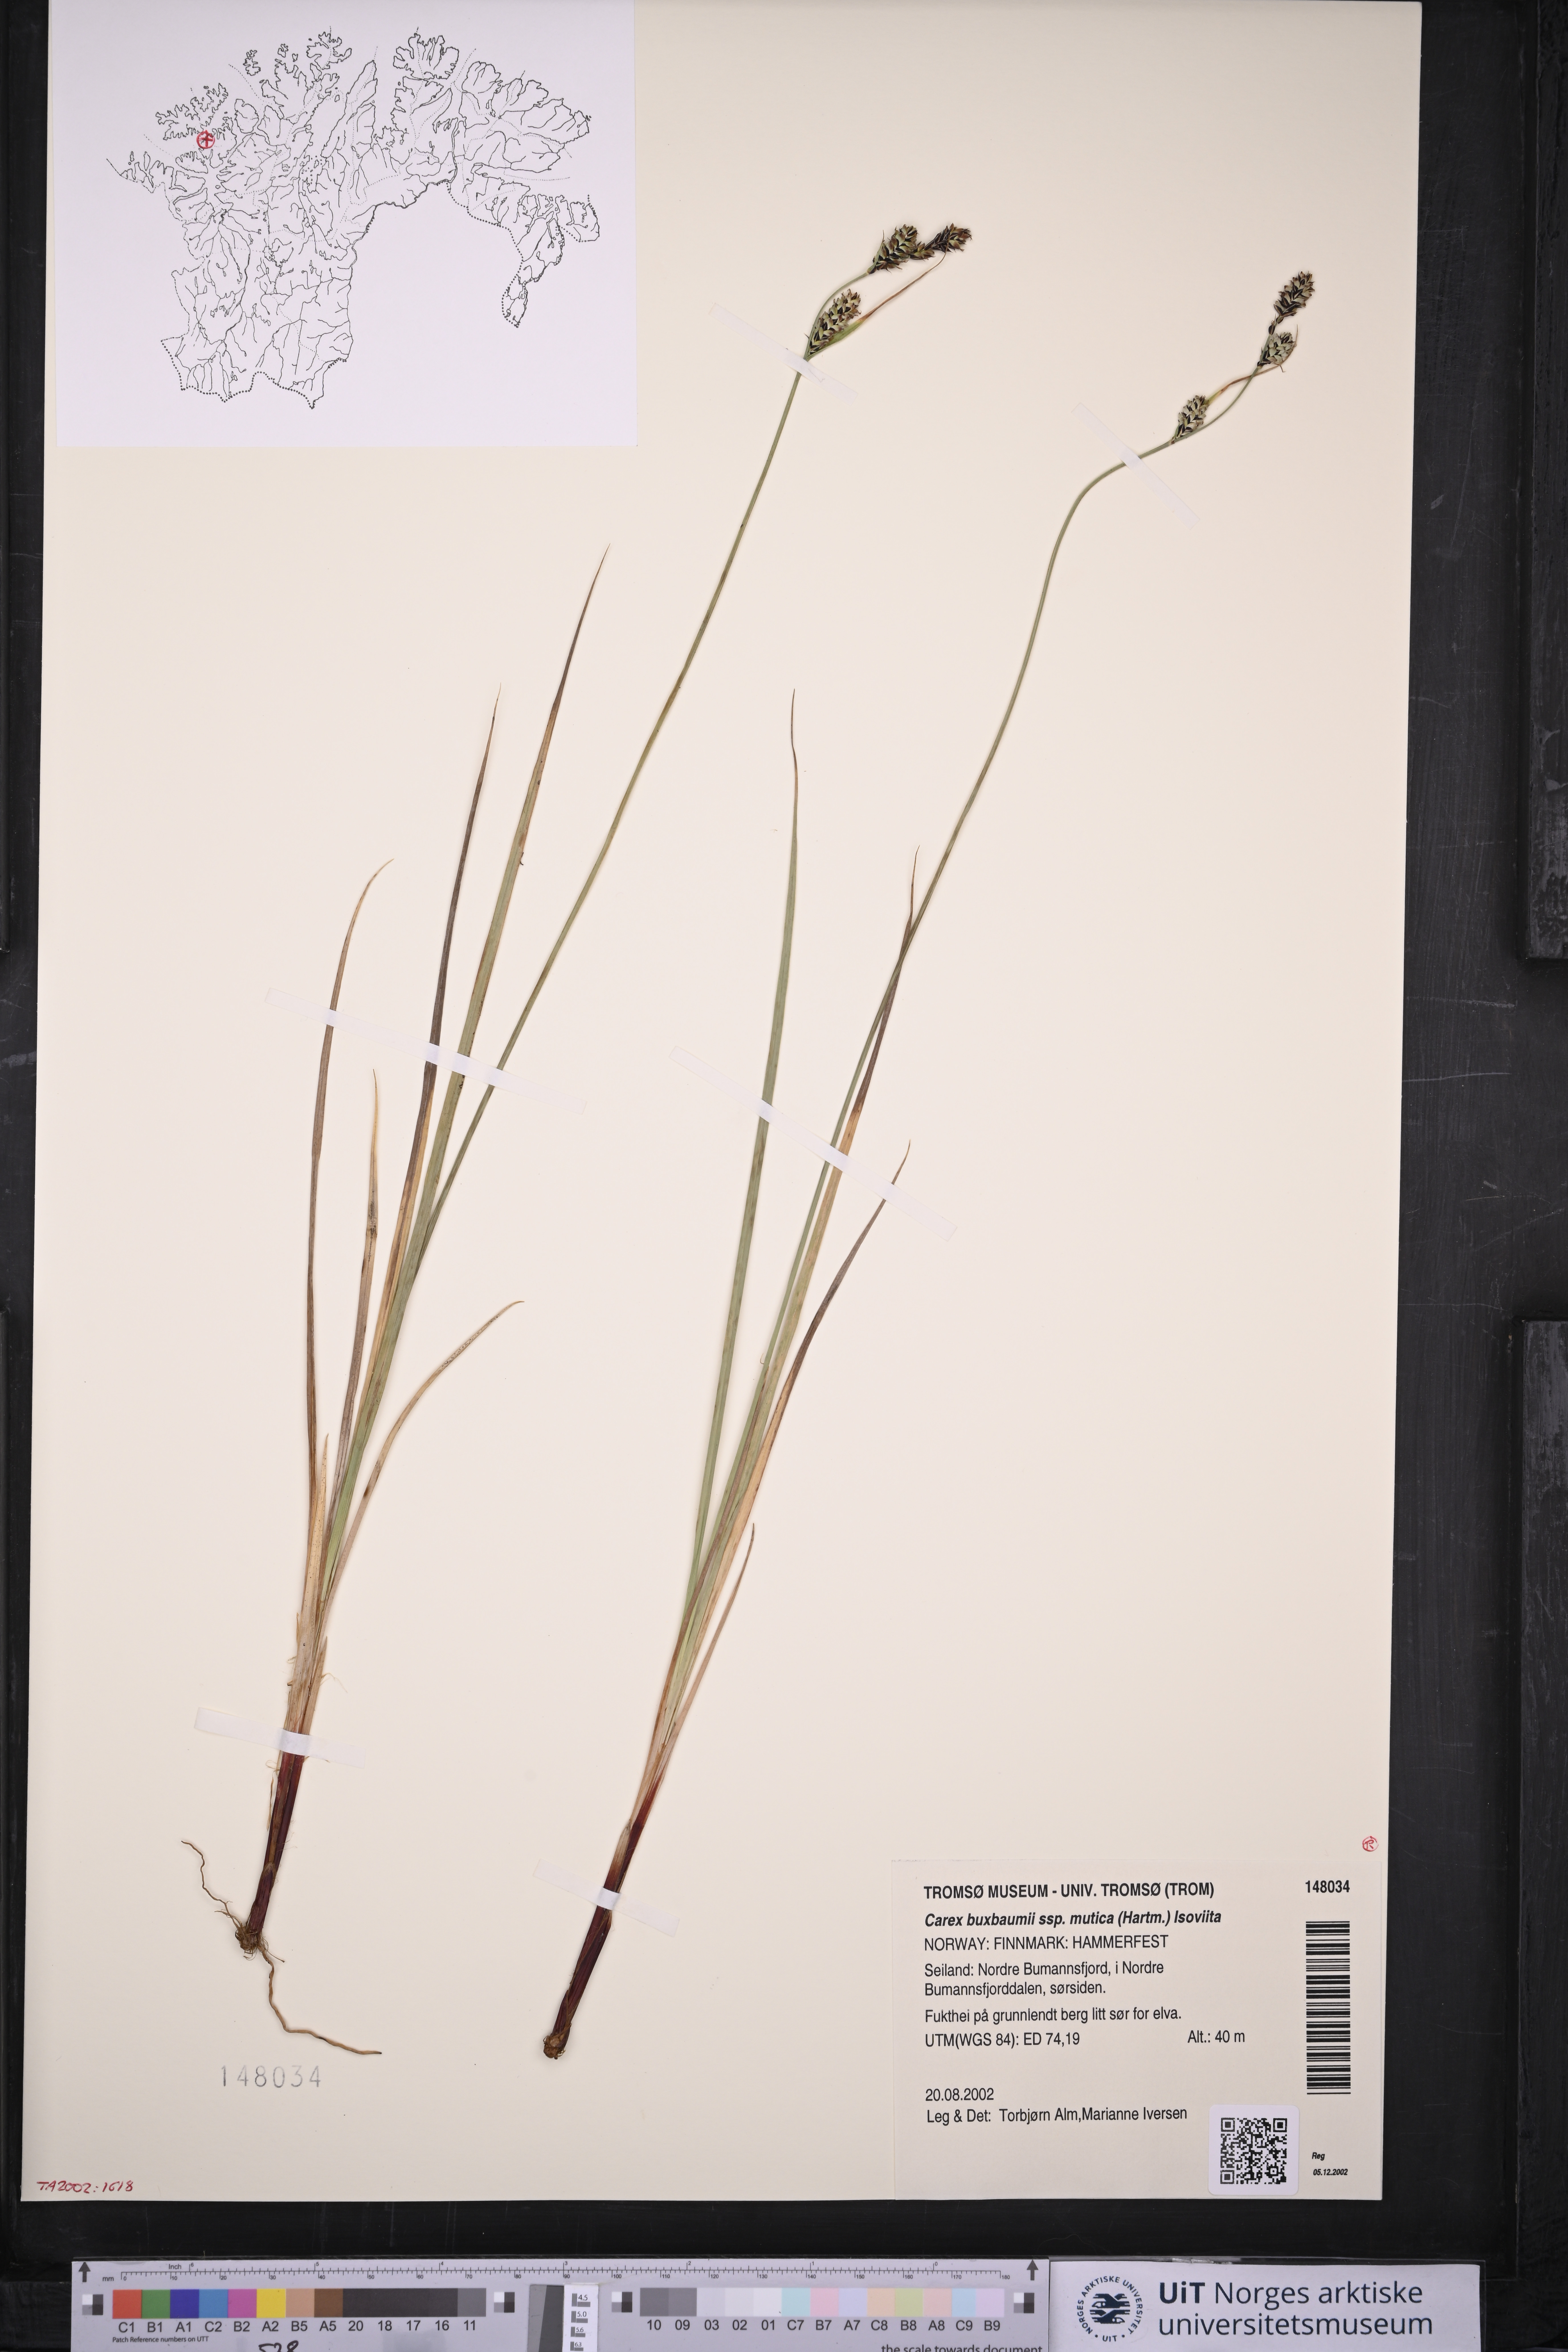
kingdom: Plantae
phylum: Tracheophyta
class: Liliopsida
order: Poales
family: Cyperaceae
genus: Carex
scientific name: Carex adelostoma
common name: Circumpolar sedge
